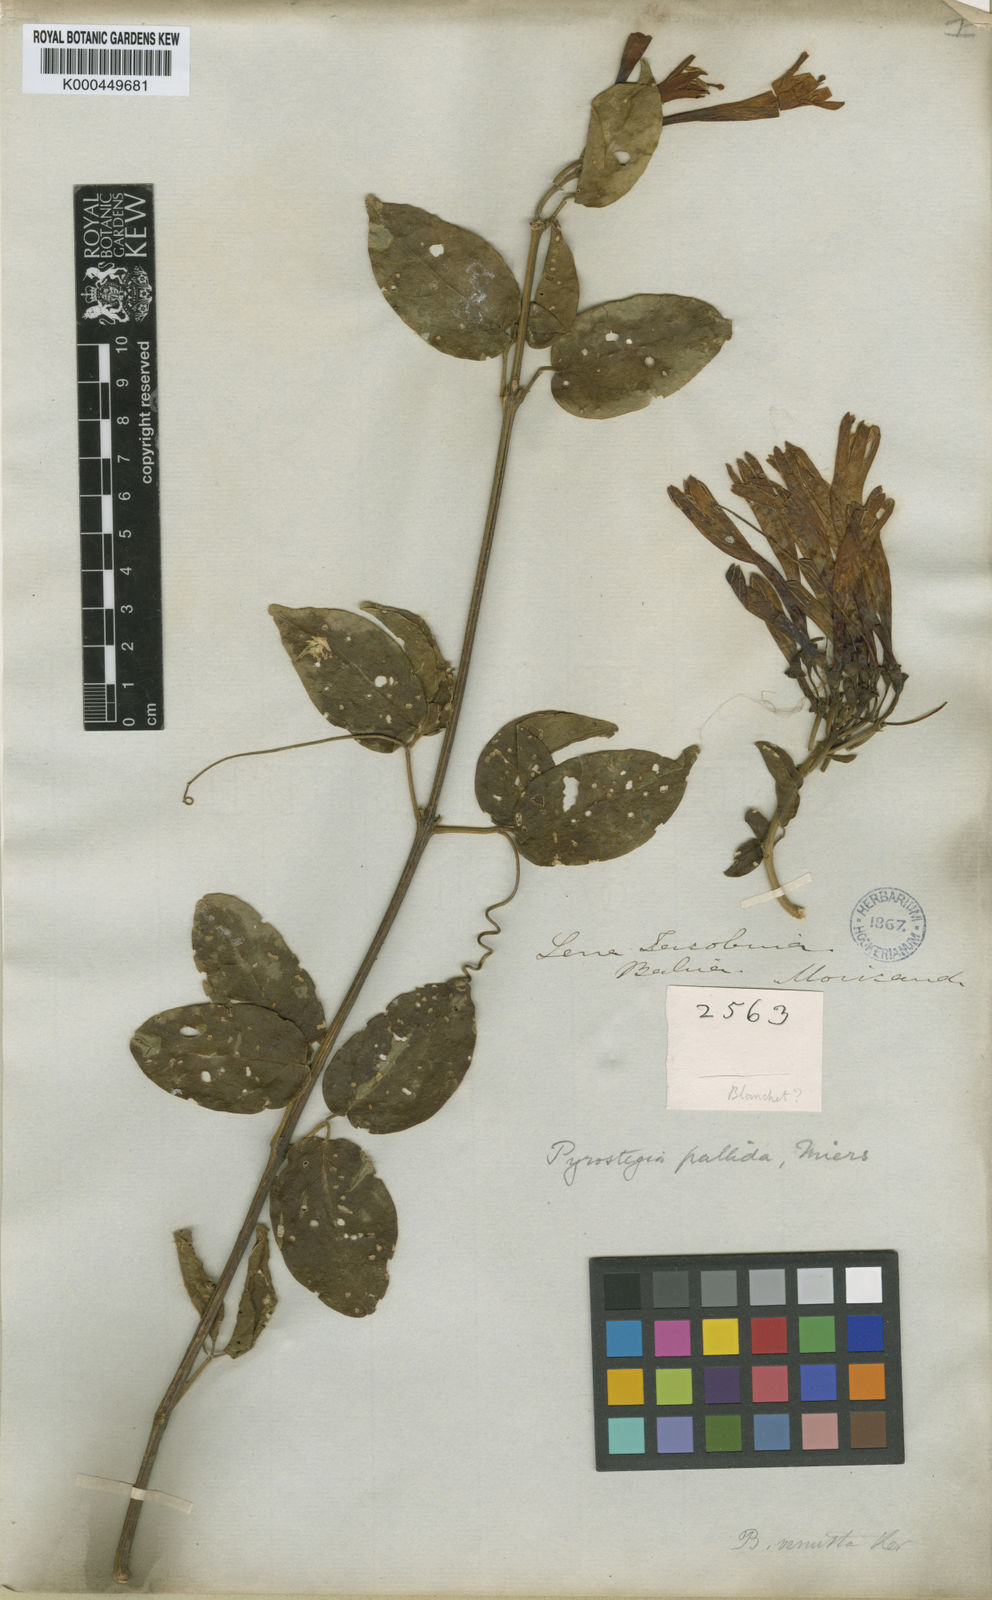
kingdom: Plantae
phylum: Tracheophyta
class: Magnoliopsida
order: Lamiales
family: Bignoniaceae
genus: Pyrostegia
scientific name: Pyrostegia venusta
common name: Flamevine
